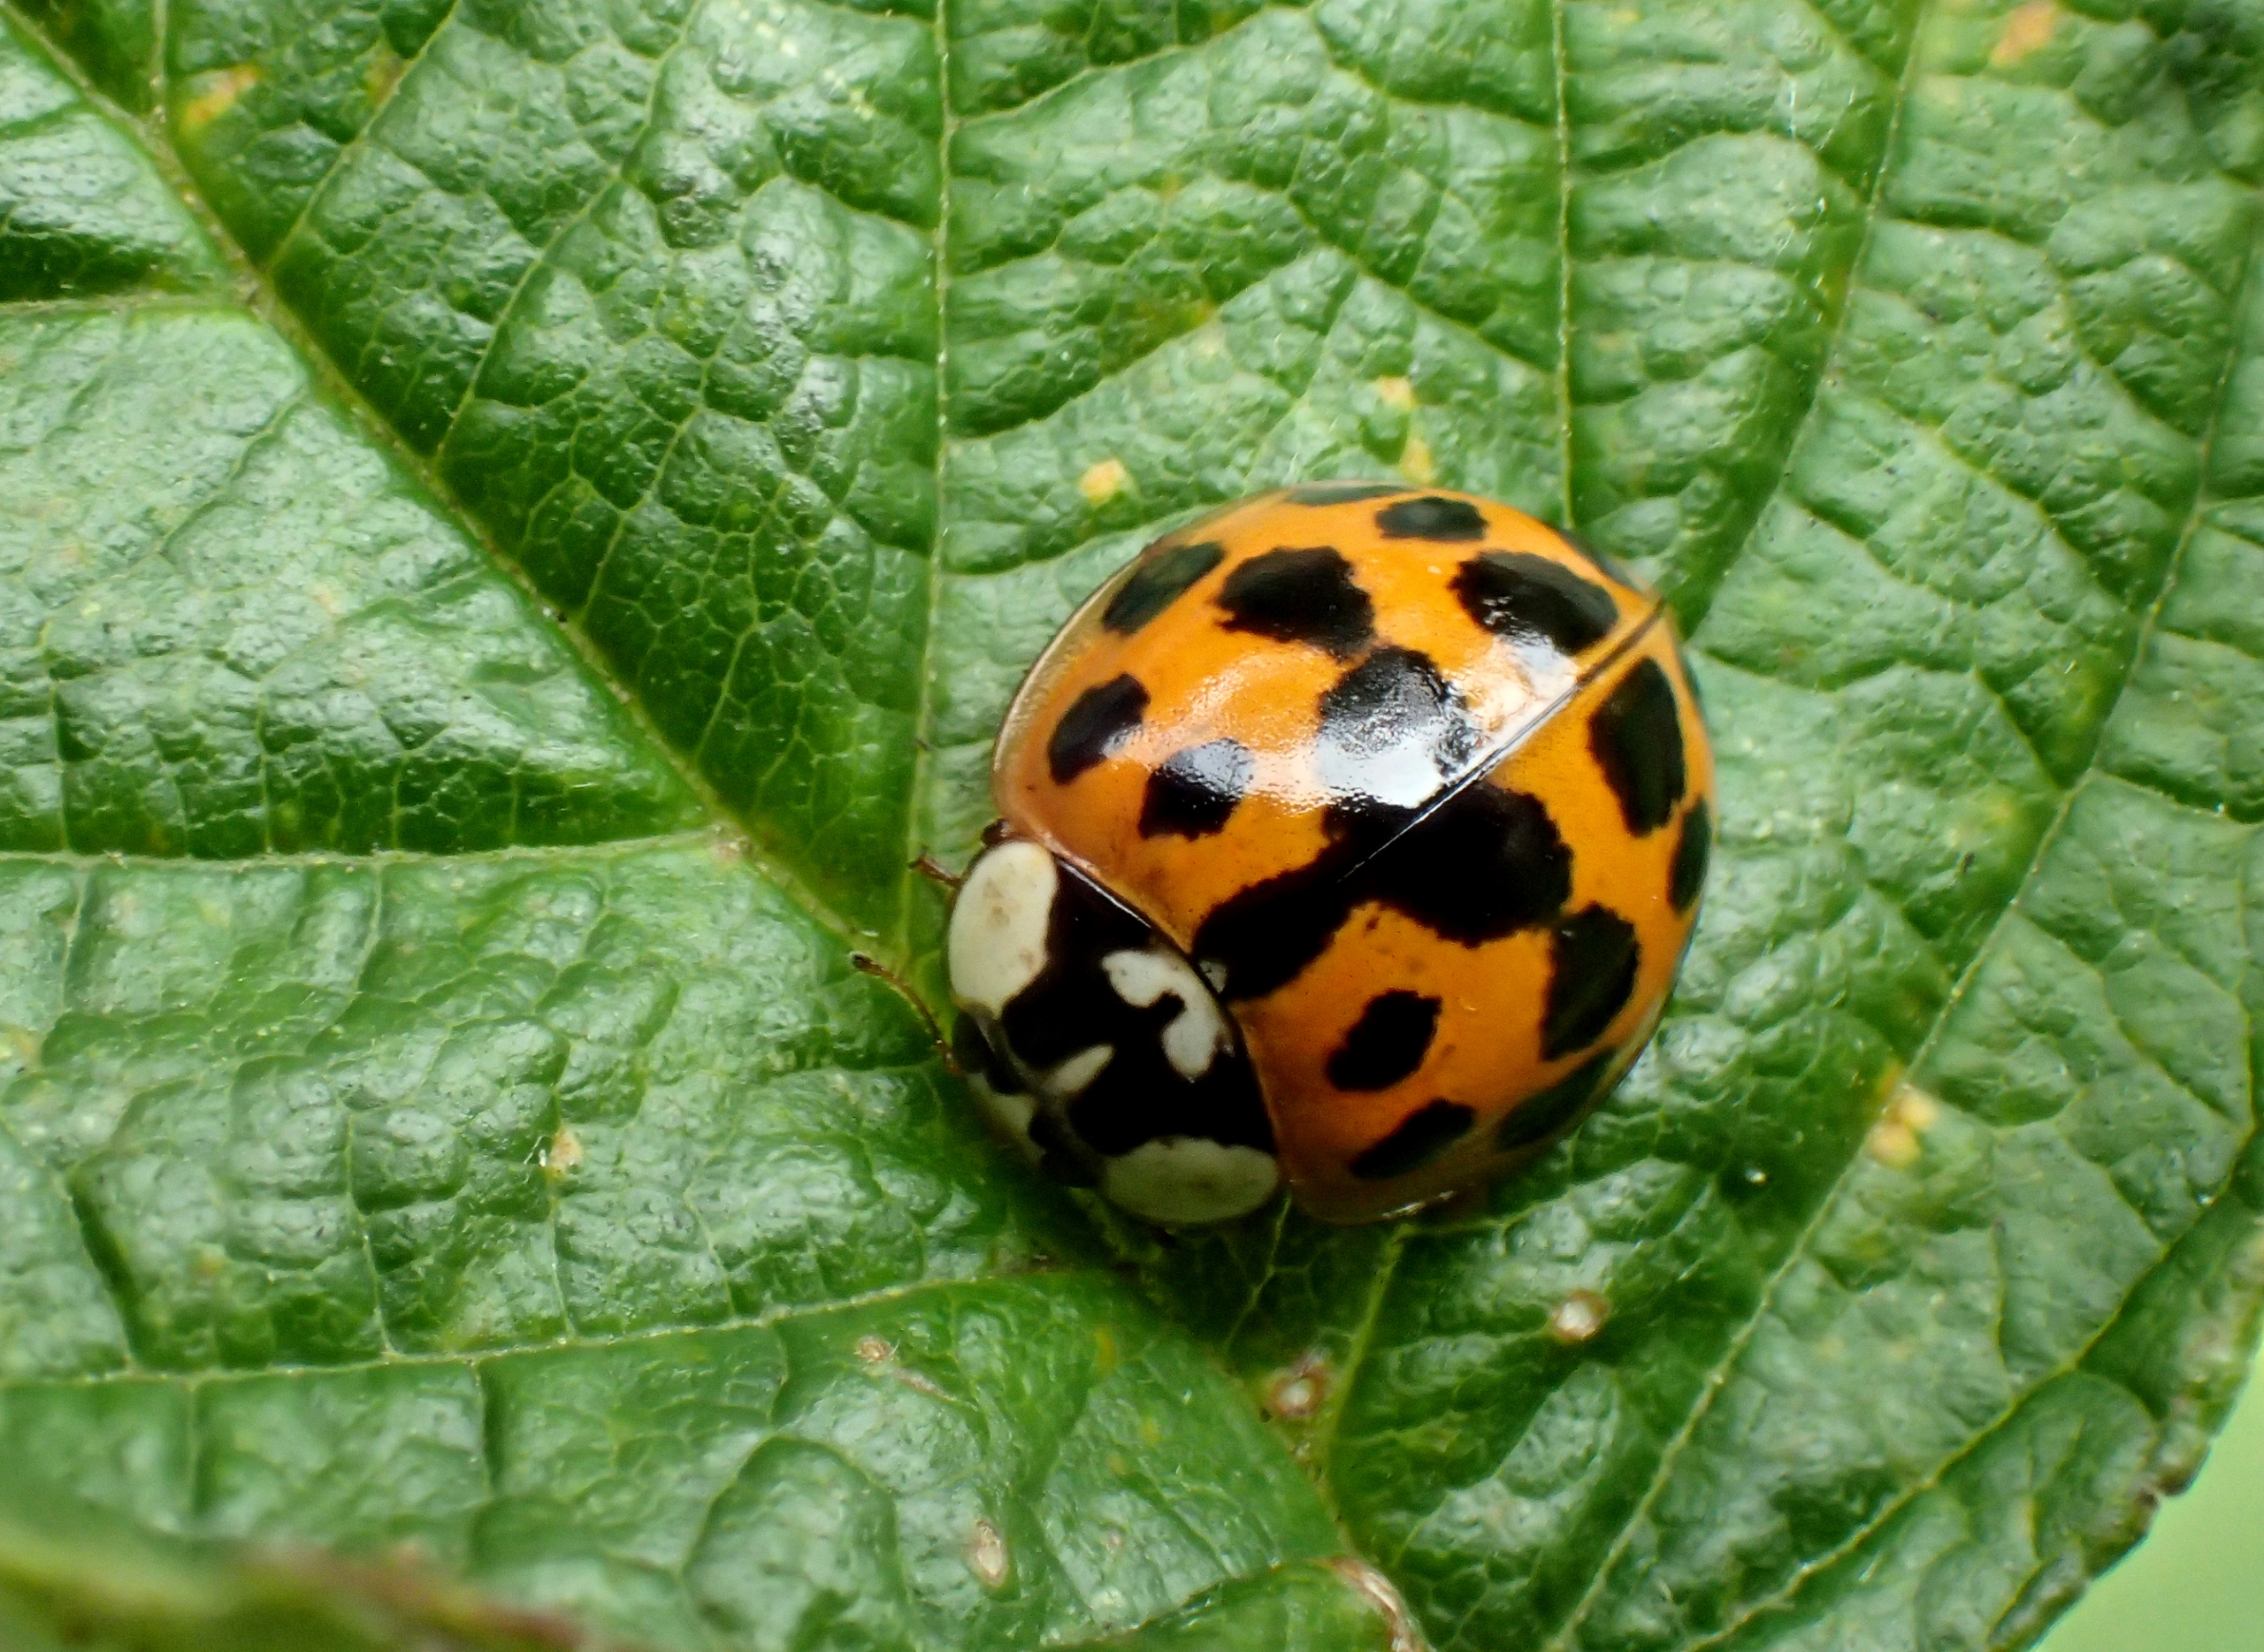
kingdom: Animalia
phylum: Arthropoda
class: Insecta
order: Coleoptera
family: Coccinellidae
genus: Harmonia
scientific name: Harmonia axyridis
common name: Harlekinmariehøne
